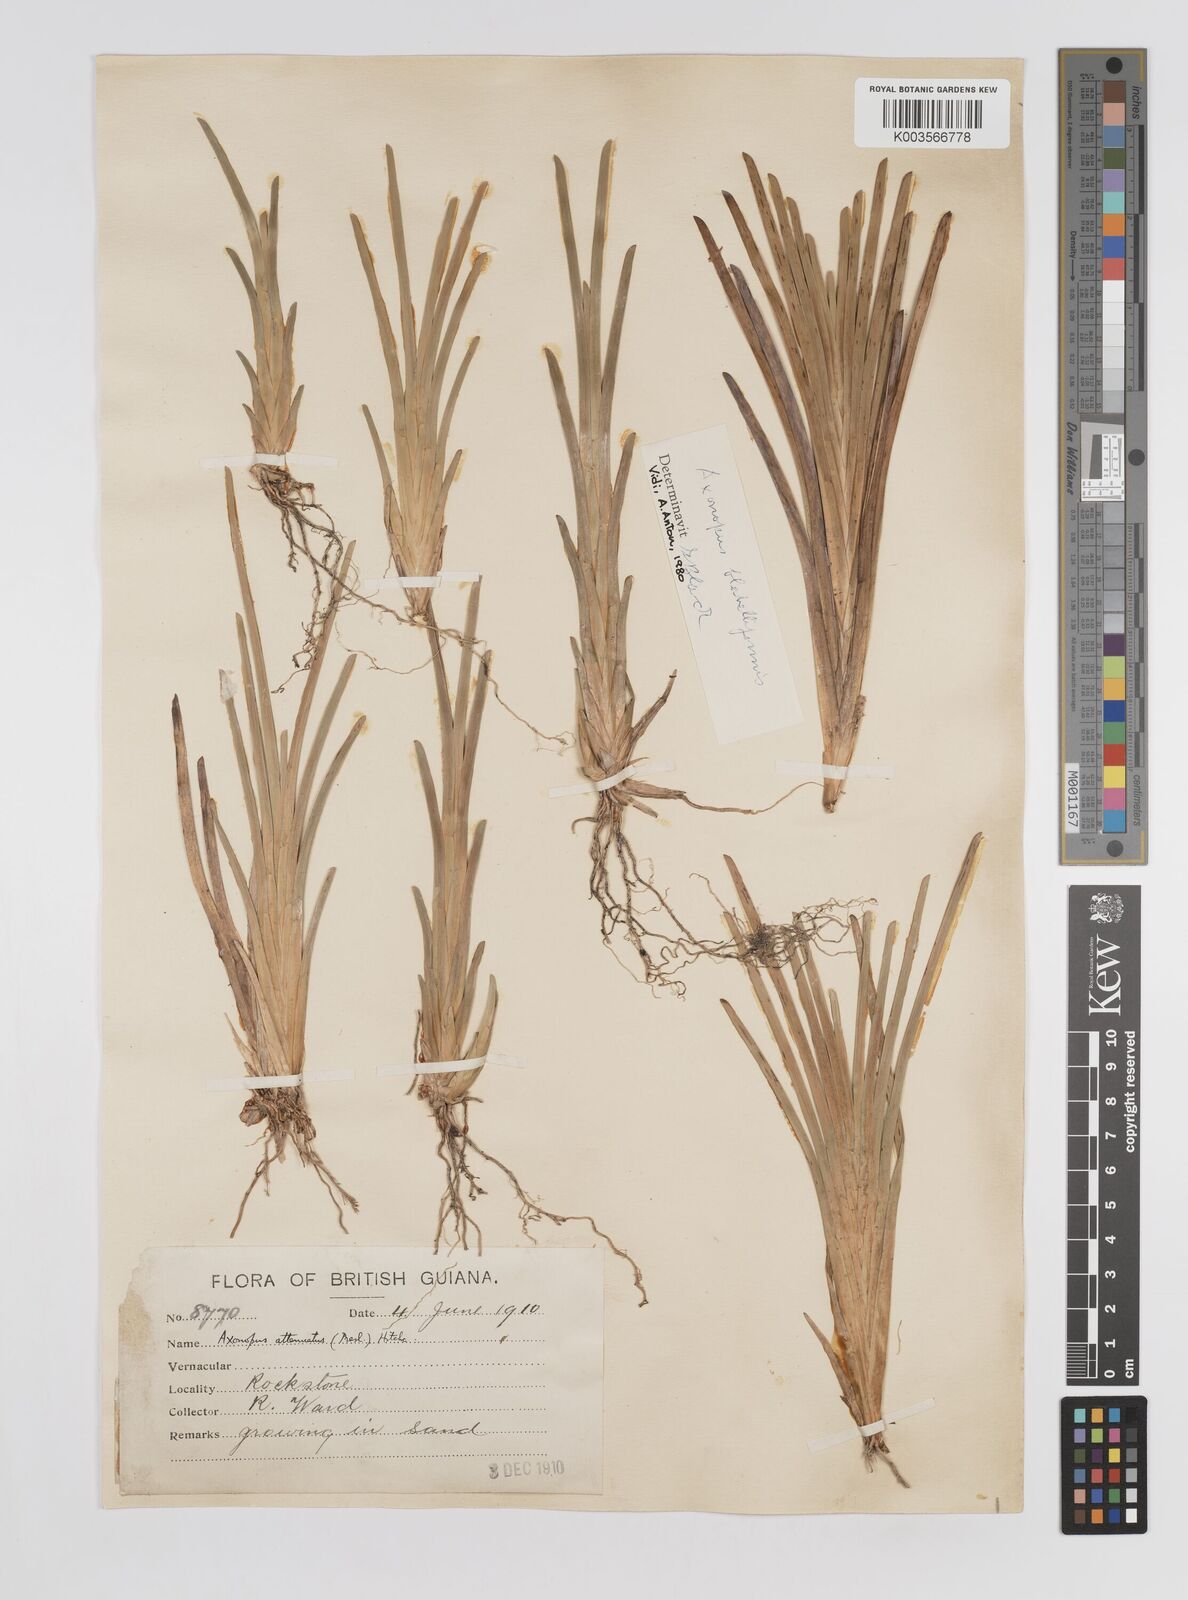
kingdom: Plantae
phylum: Tracheophyta
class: Liliopsida
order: Poales
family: Poaceae
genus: Axonopus
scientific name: Axonopus flabelliformis
